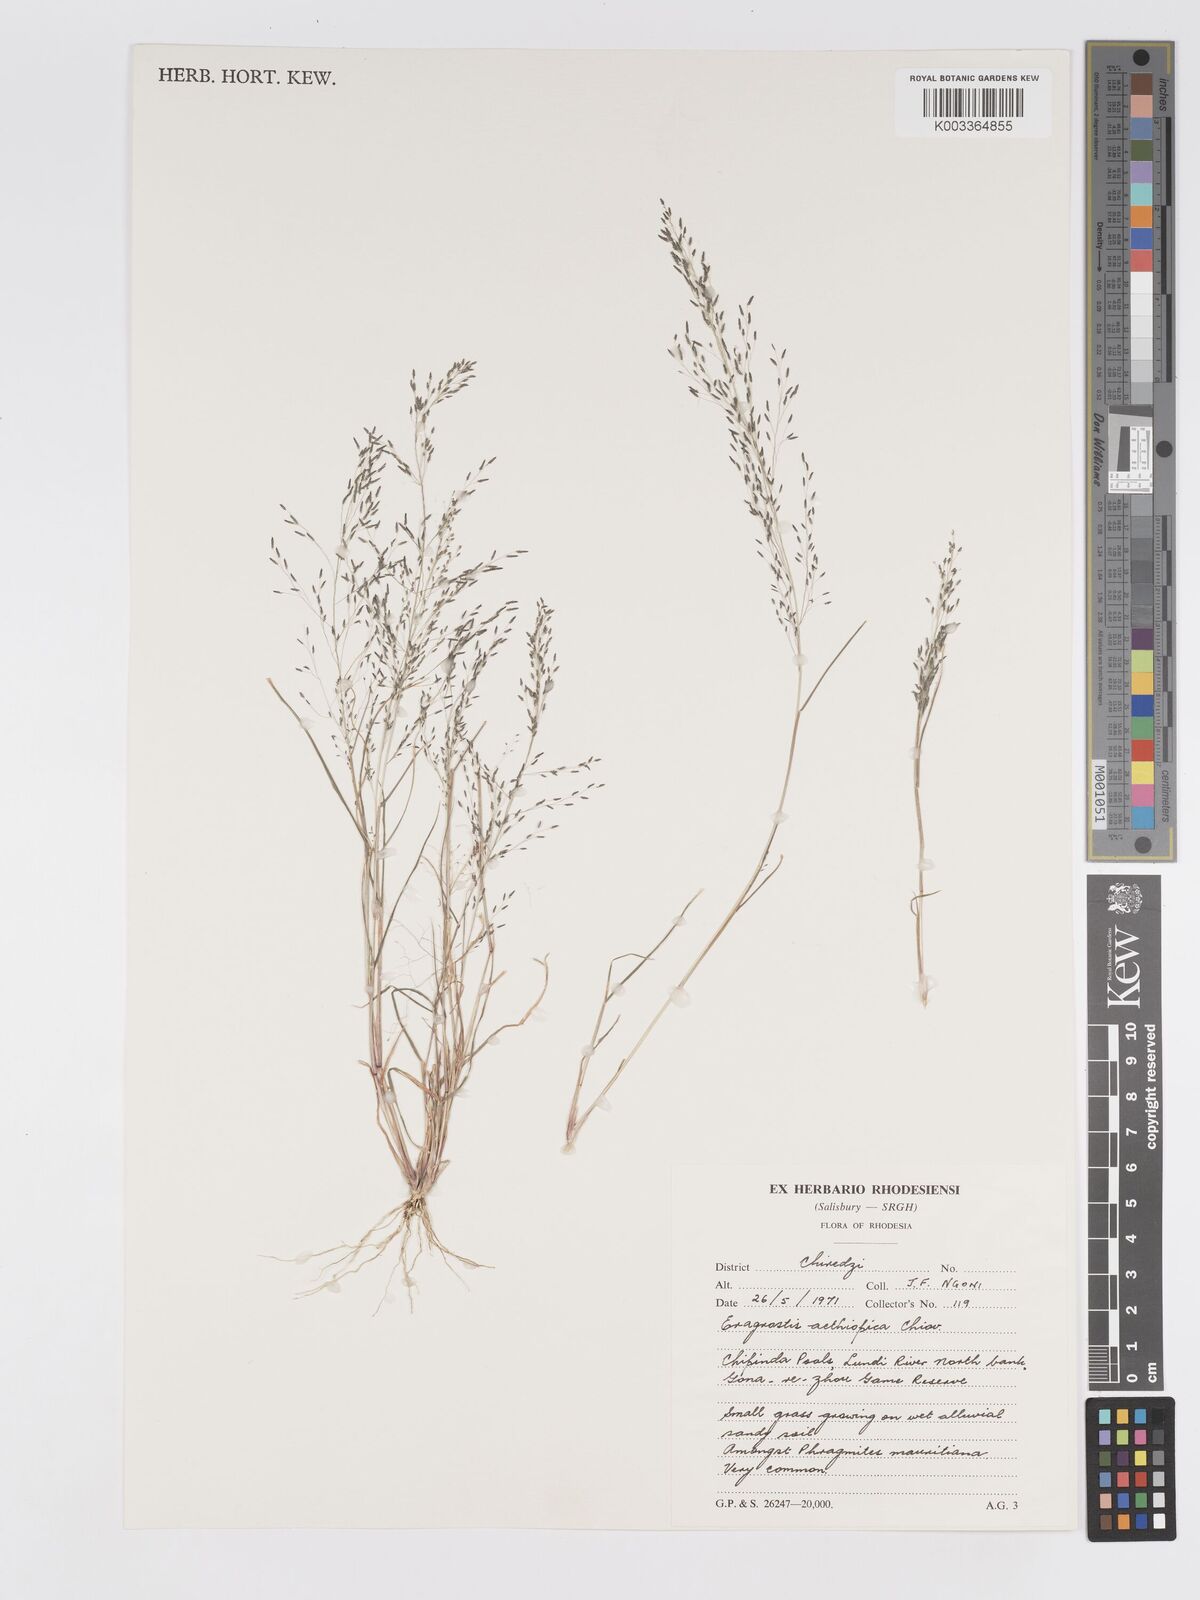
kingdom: Plantae
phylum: Tracheophyta
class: Liliopsida
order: Poales
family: Poaceae
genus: Eragrostis
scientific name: Eragrostis aethiopica
